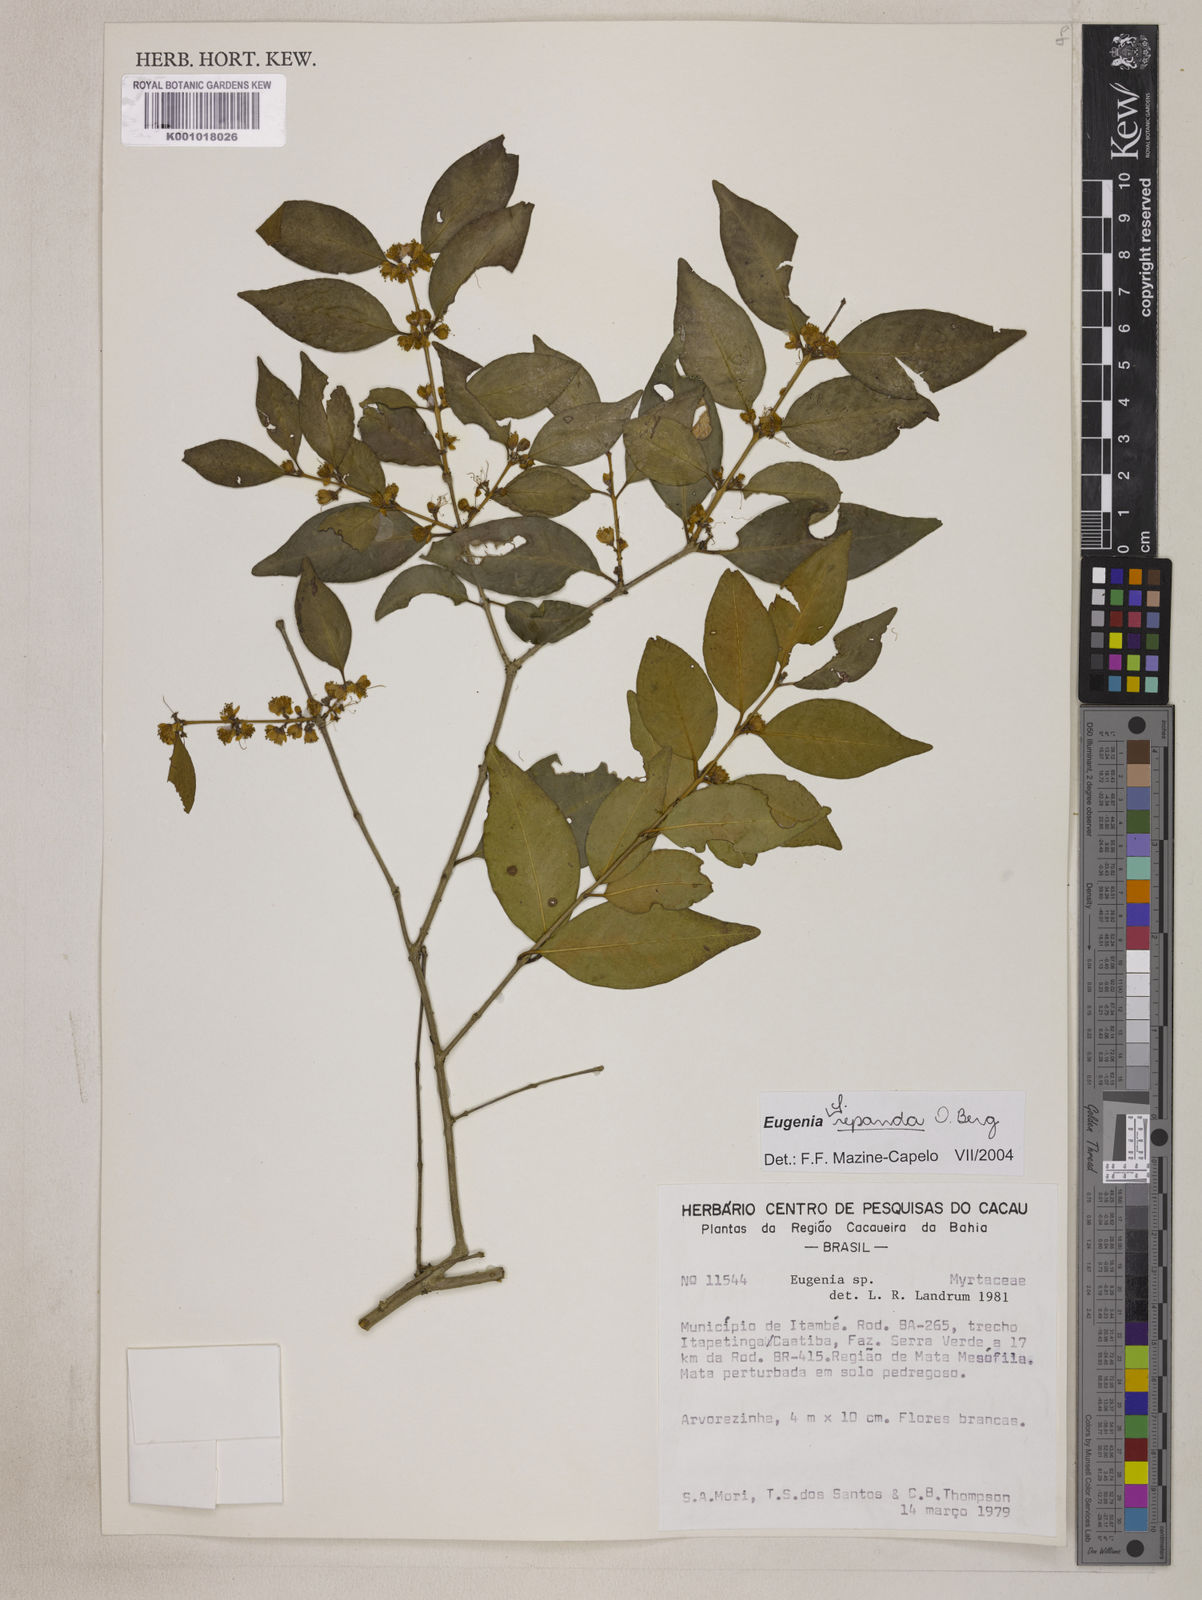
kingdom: Plantae
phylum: Tracheophyta
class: Magnoliopsida
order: Myrtales
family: Myrtaceae
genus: Eugenia
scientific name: Eugenia repanda
